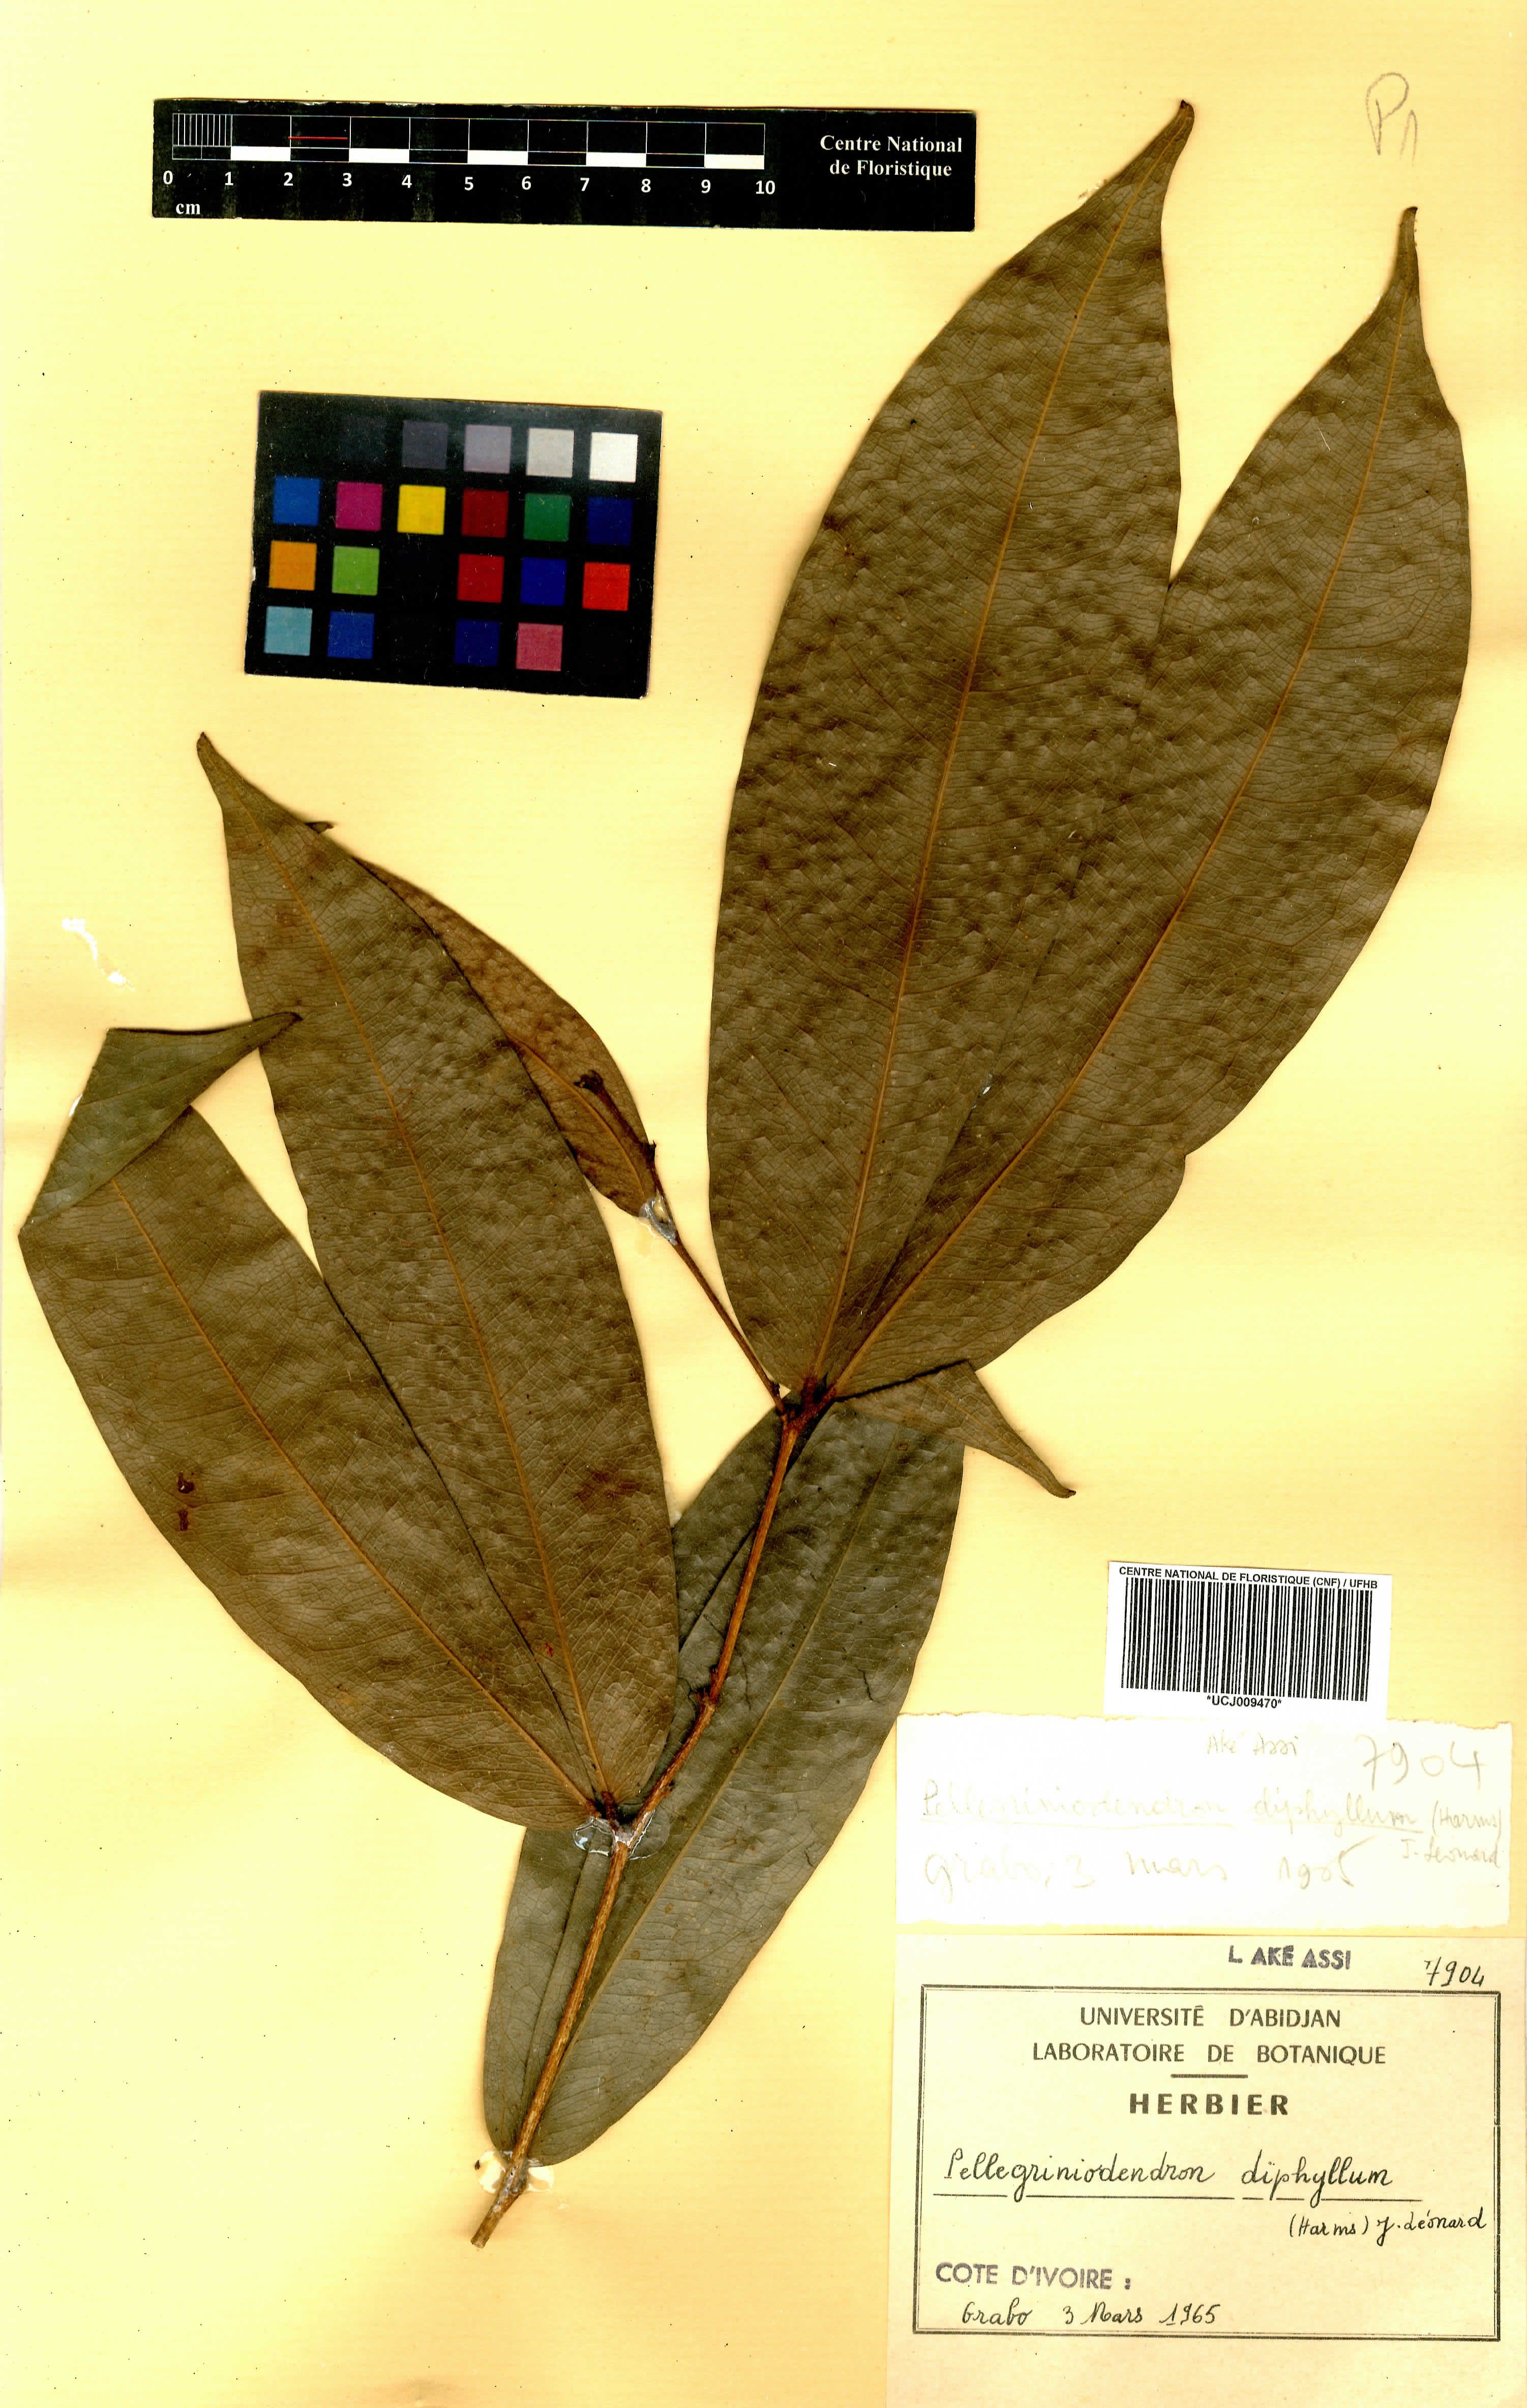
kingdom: Plantae
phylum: Tracheophyta
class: Magnoliopsida
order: Fabales
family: Fabaceae
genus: Gilbertiodendron
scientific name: Gilbertiodendron diphyllum
